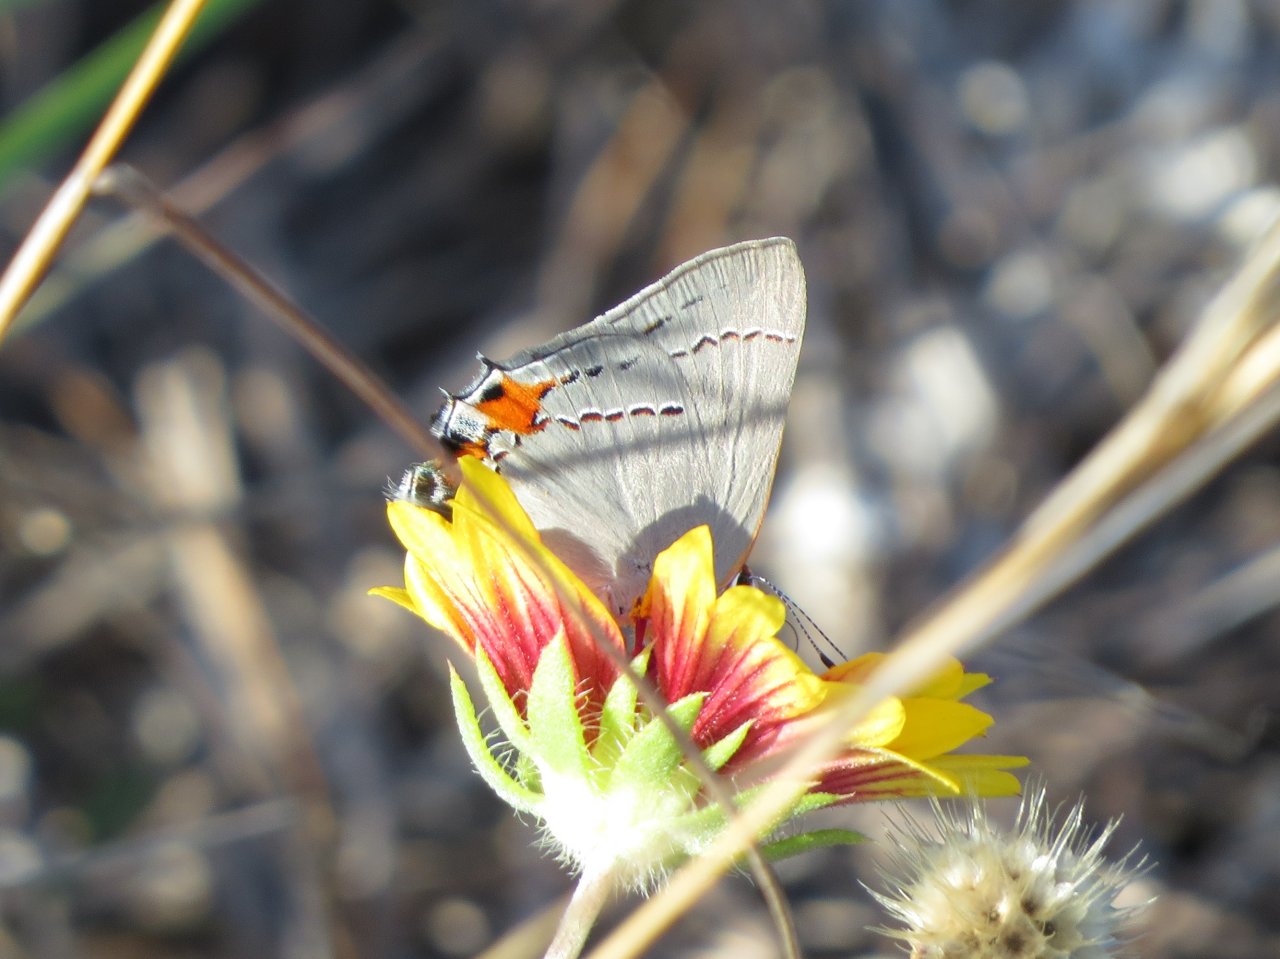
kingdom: Animalia
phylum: Arthropoda
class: Insecta
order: Lepidoptera
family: Lycaenidae
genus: Strymon
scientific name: Strymon melinus
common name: Gray Hairstreak
